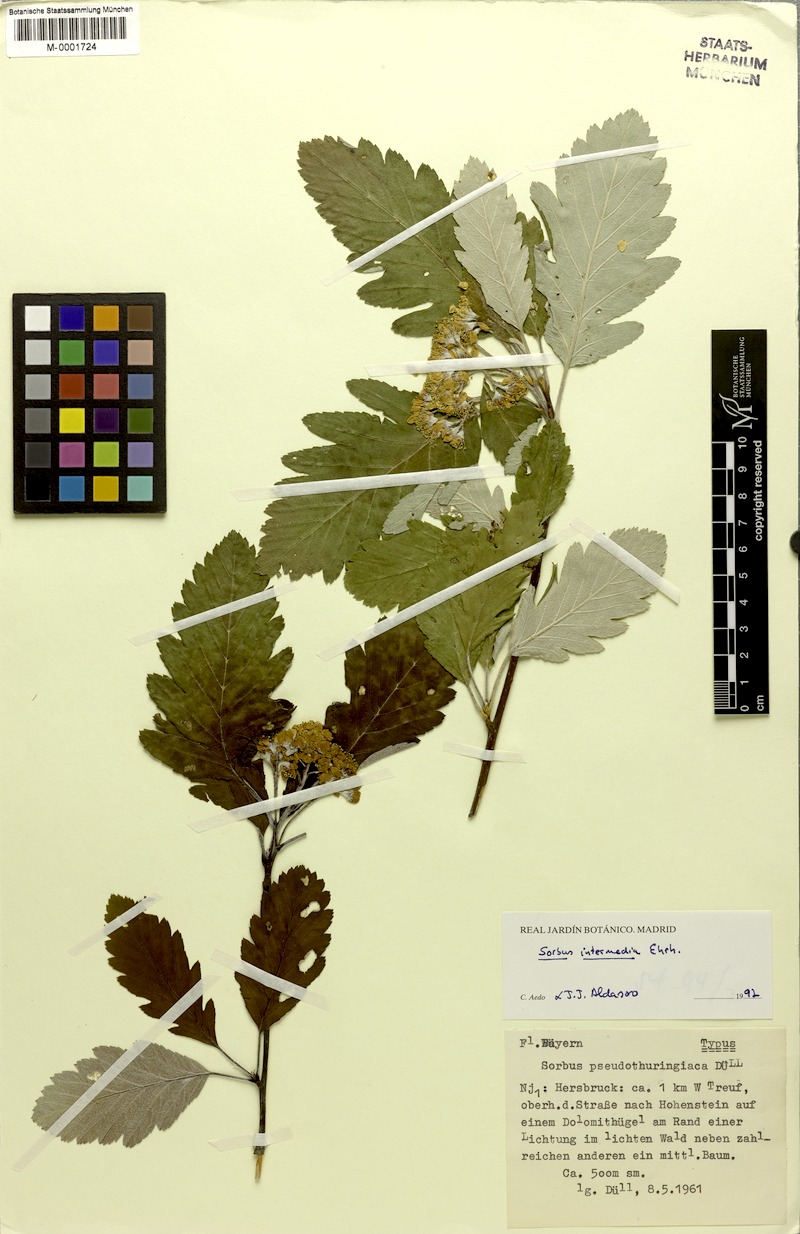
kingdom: Plantae
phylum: Tracheophyta
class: Magnoliopsida
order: Rosales
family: Rosaceae
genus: Scandosorbus
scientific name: Scandosorbus intermedia
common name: Swedish whitebeam
